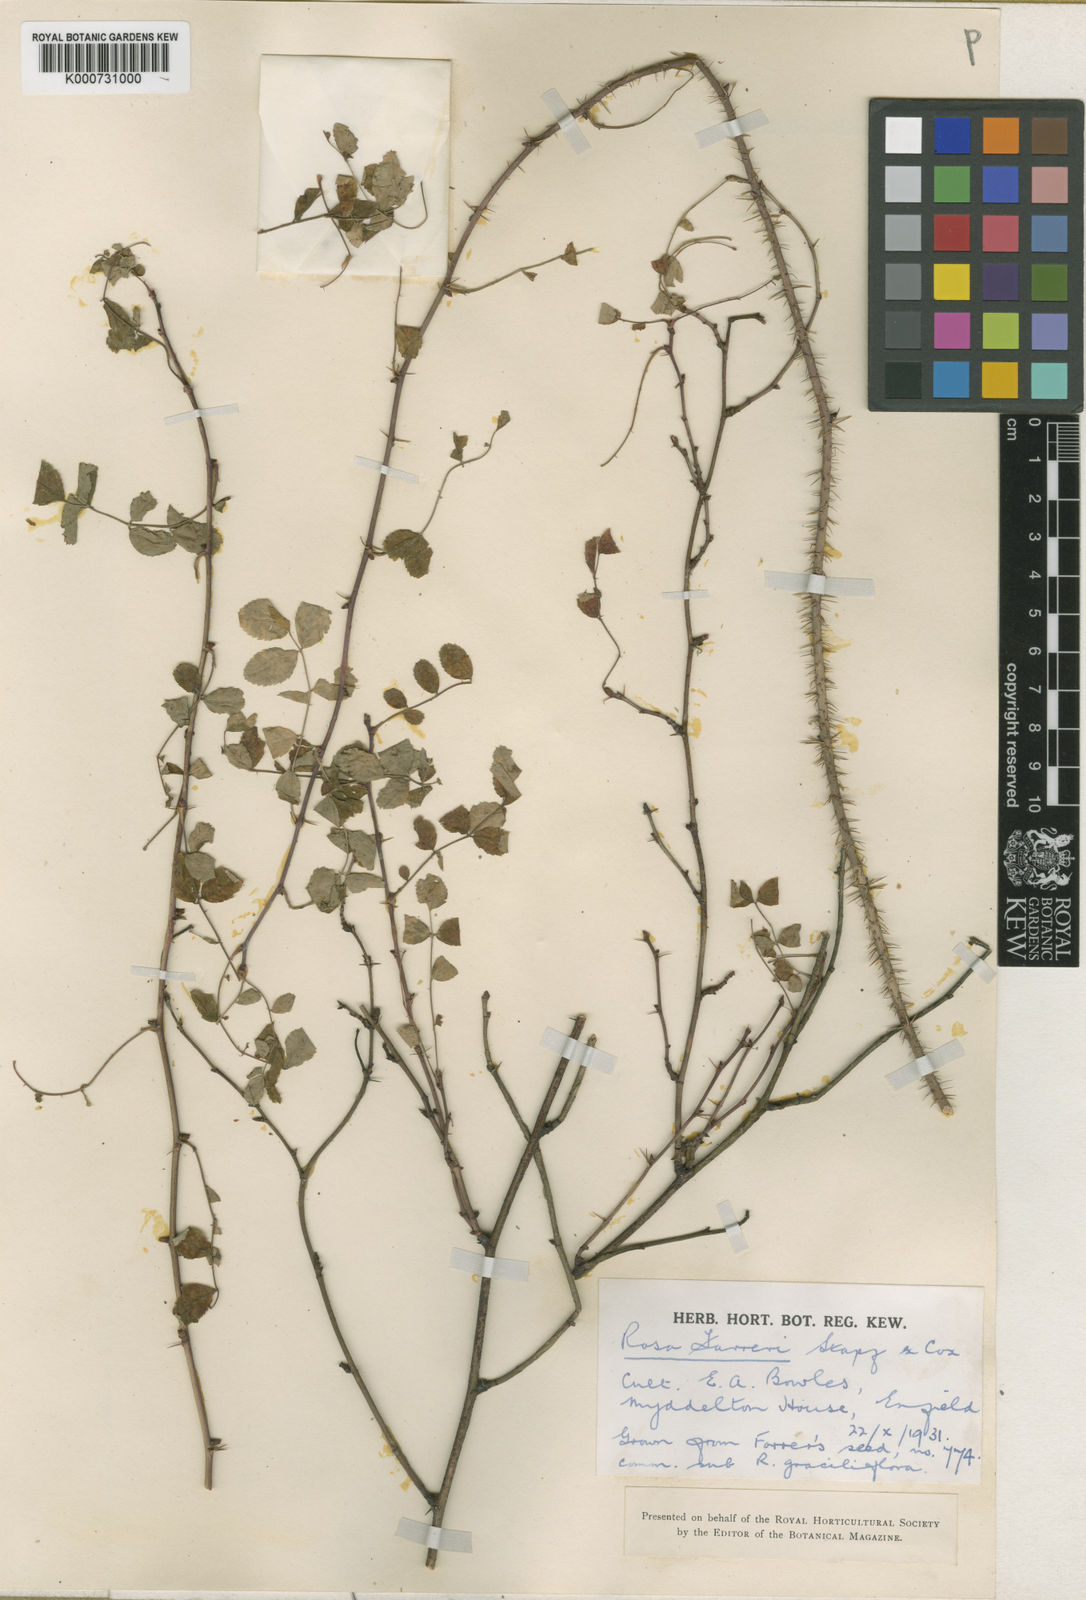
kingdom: Plantae
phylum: Tracheophyta
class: Magnoliopsida
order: Rosales
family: Rosaceae
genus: Rosa
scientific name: Rosa farreri
